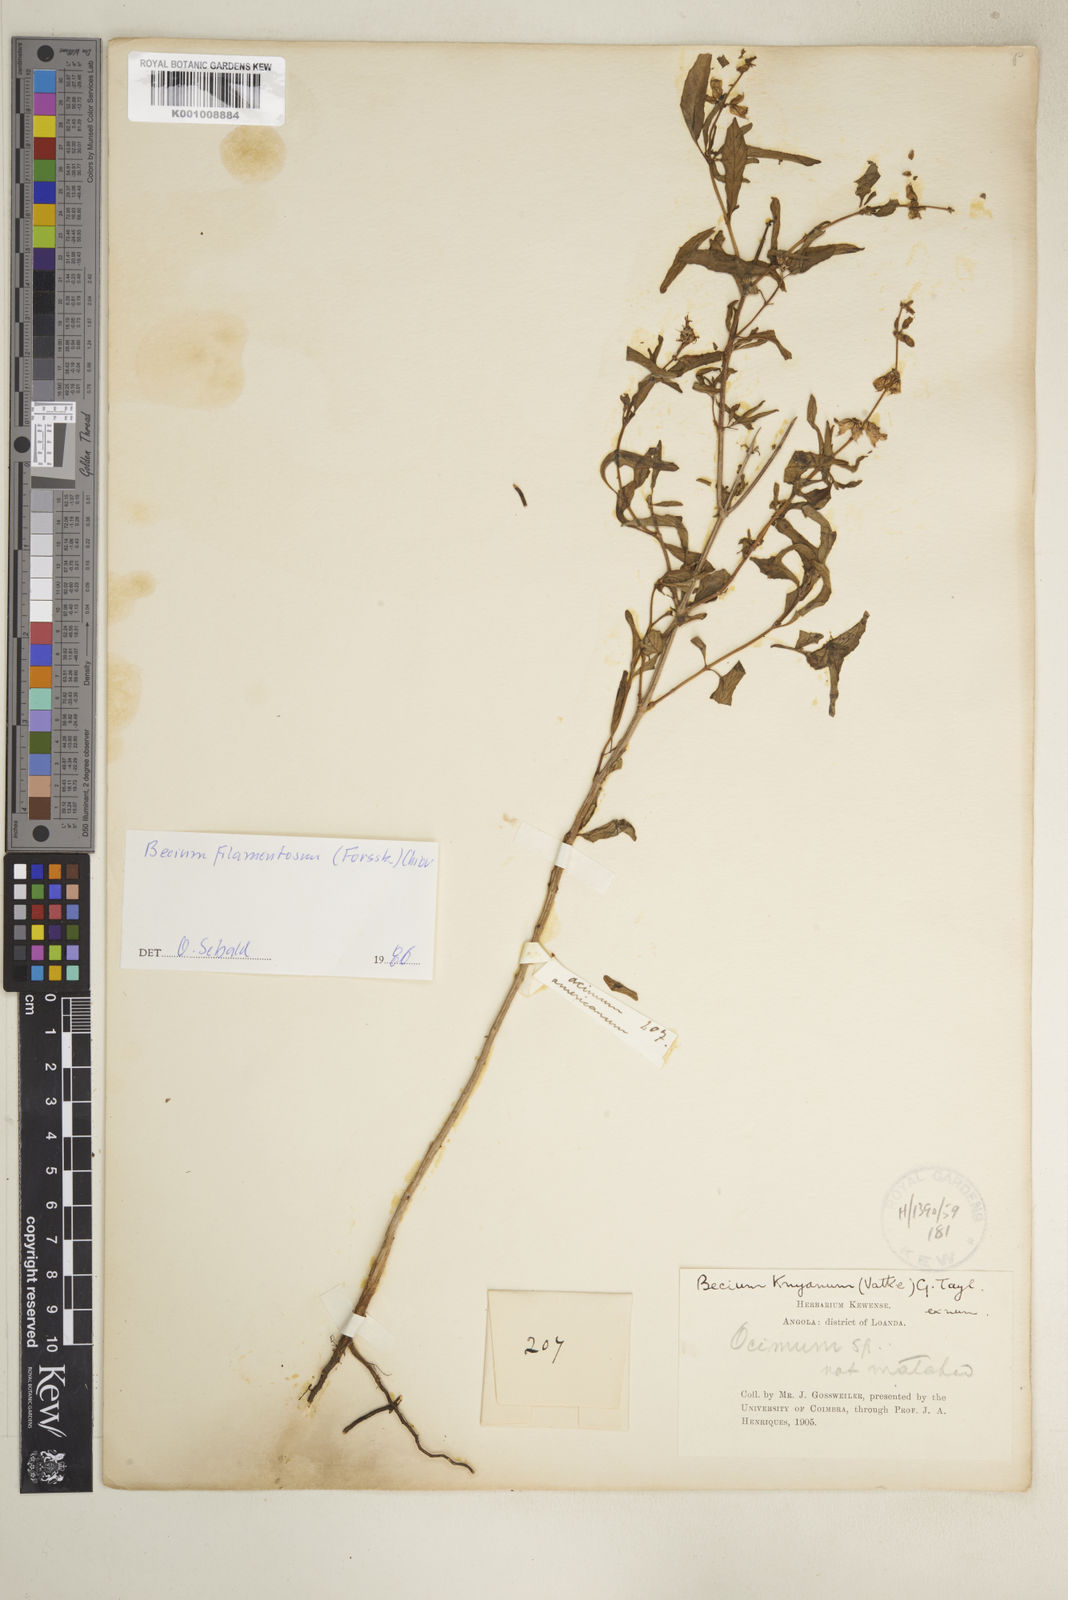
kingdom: Plantae
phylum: Tracheophyta
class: Magnoliopsida
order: Lamiales
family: Lamiaceae
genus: Ocimum
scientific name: Ocimum filamentosum
